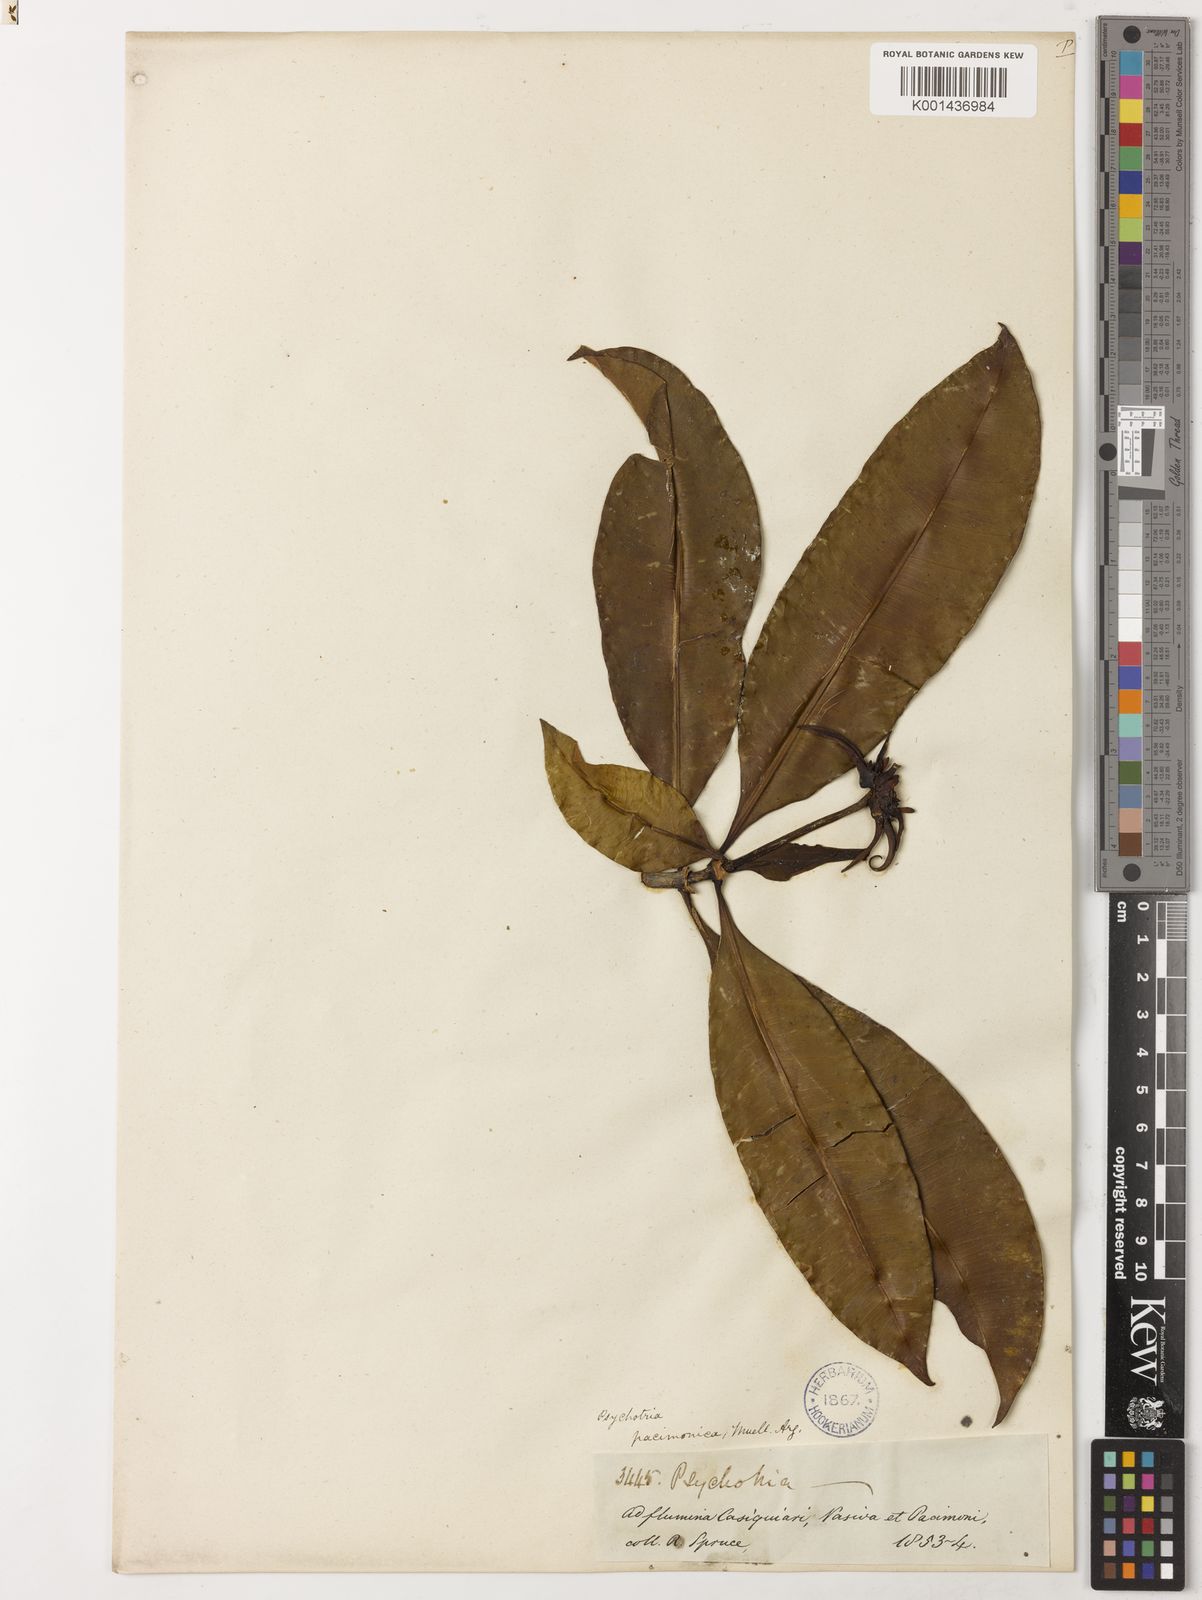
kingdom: Plantae
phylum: Tracheophyta
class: Magnoliopsida
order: Gentianales
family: Rubiaceae
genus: Carapichea
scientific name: Carapichea
